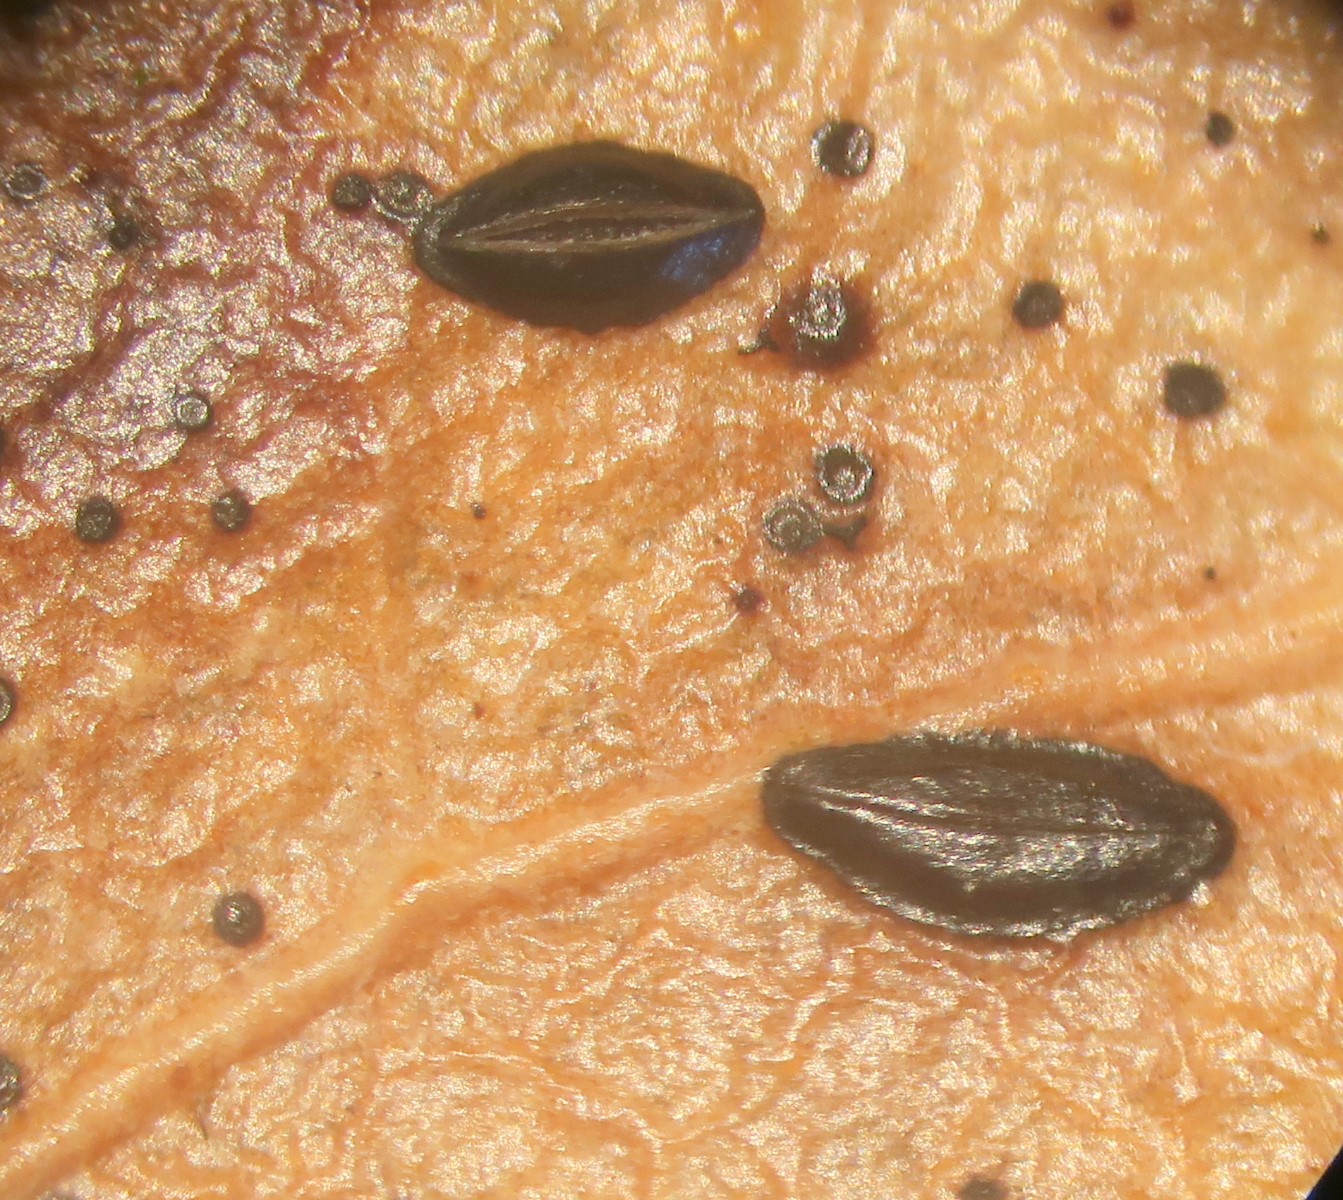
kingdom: Fungi
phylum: Ascomycota
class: Leotiomycetes
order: Rhytismatales
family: Rhytismataceae
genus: Hypoderma
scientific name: Hypoderma hederae
